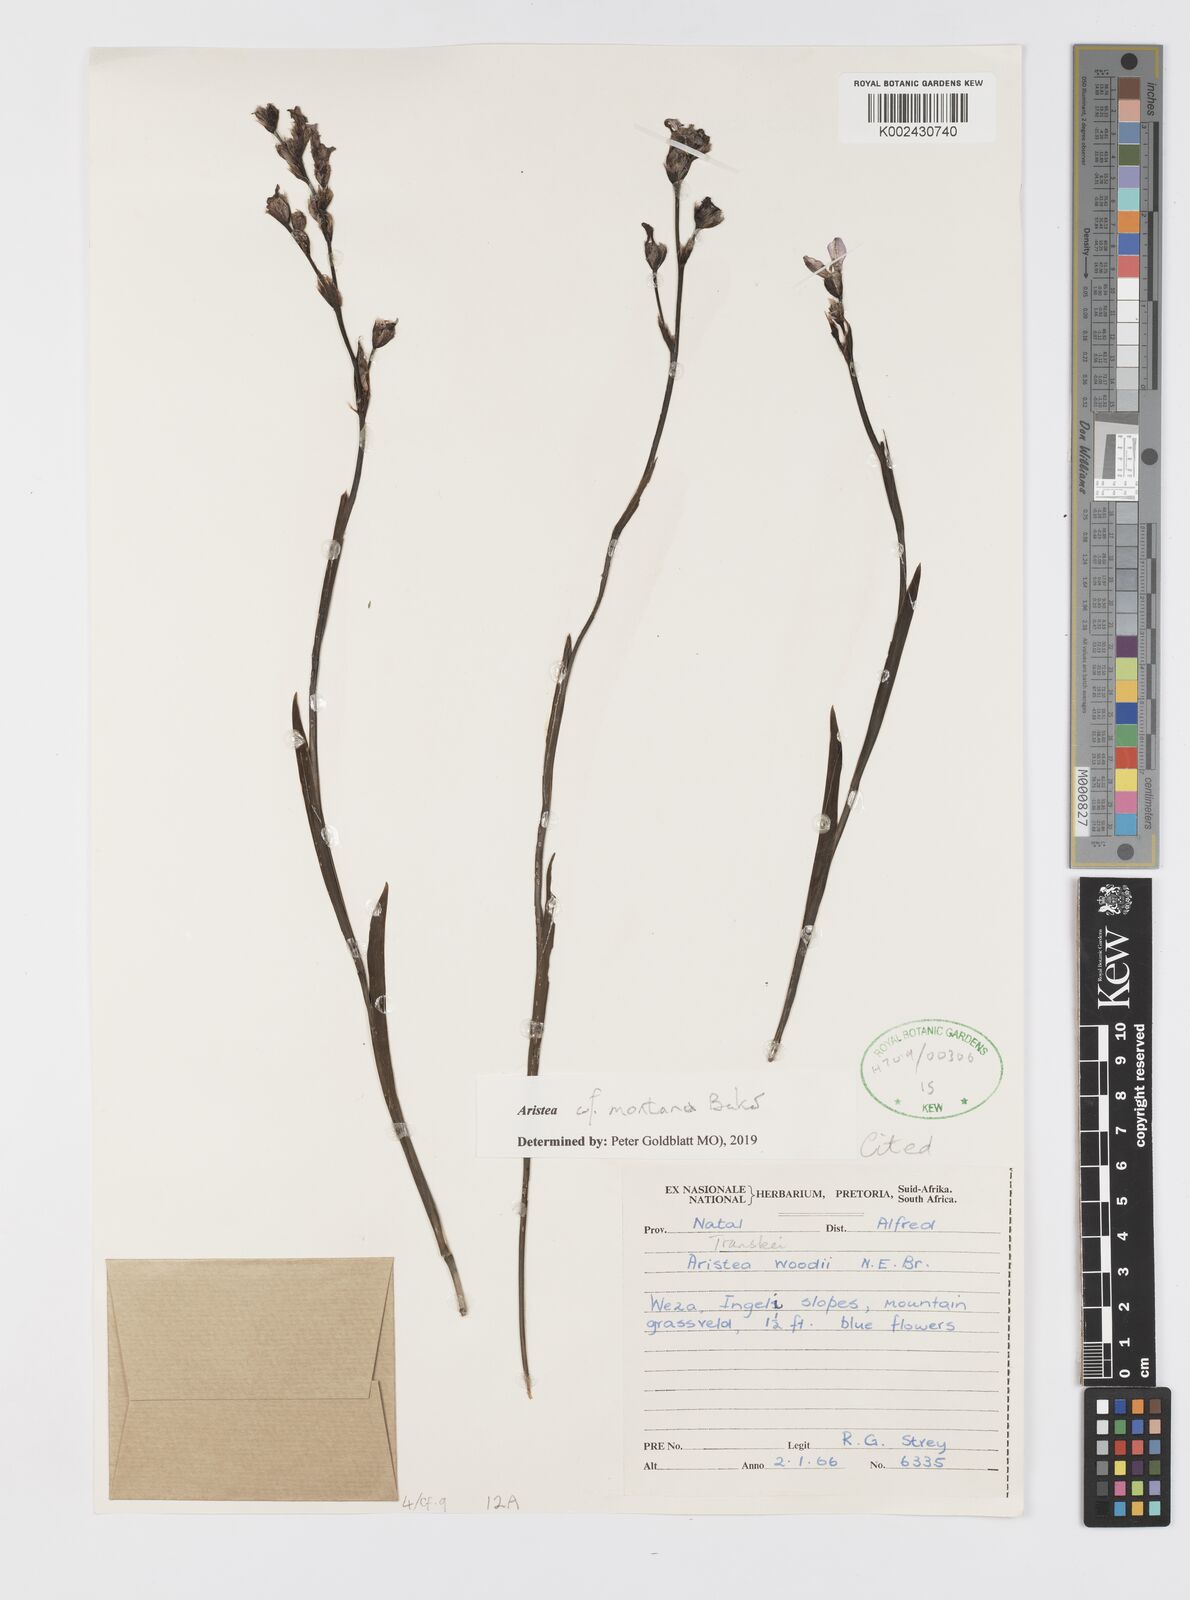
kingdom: Plantae
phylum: Tracheophyta
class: Liliopsida
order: Asparagales
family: Iridaceae
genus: Aristea
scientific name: Aristea montana
